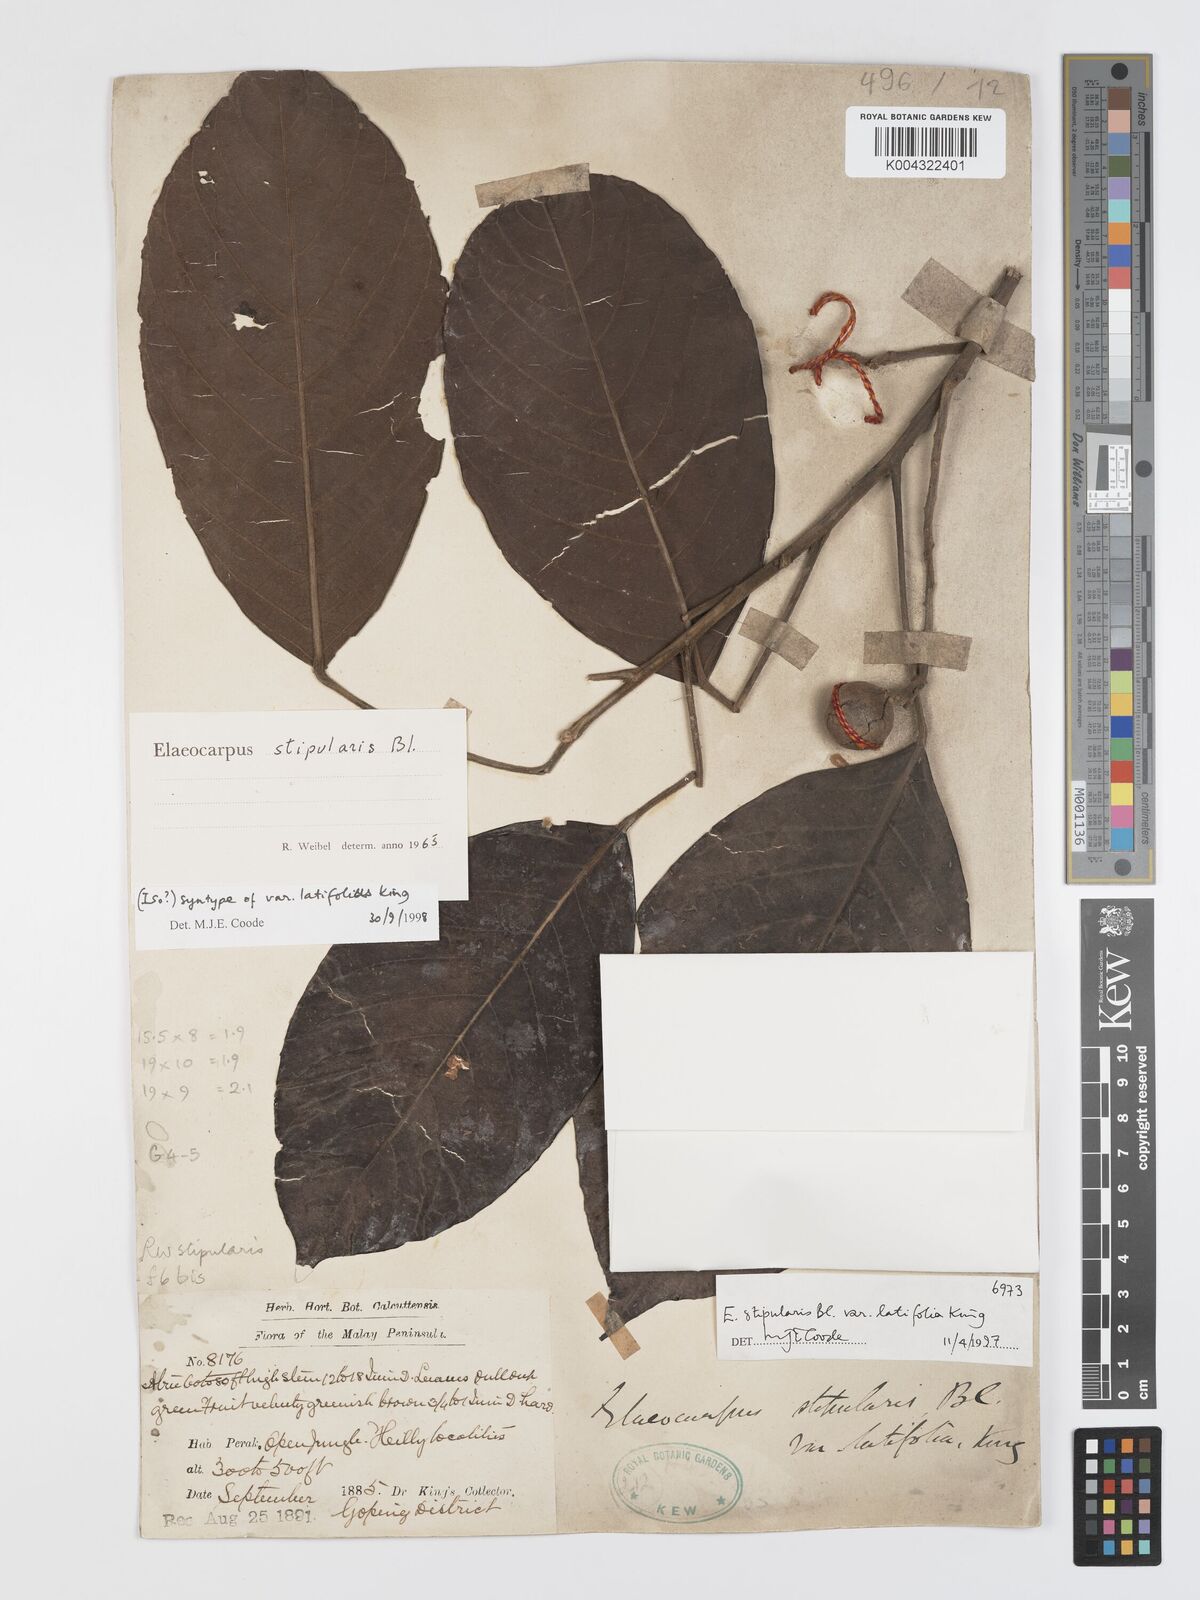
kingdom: Plantae
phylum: Tracheophyta
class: Magnoliopsida
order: Oxalidales
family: Elaeocarpaceae
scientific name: Elaeocarpaceae
